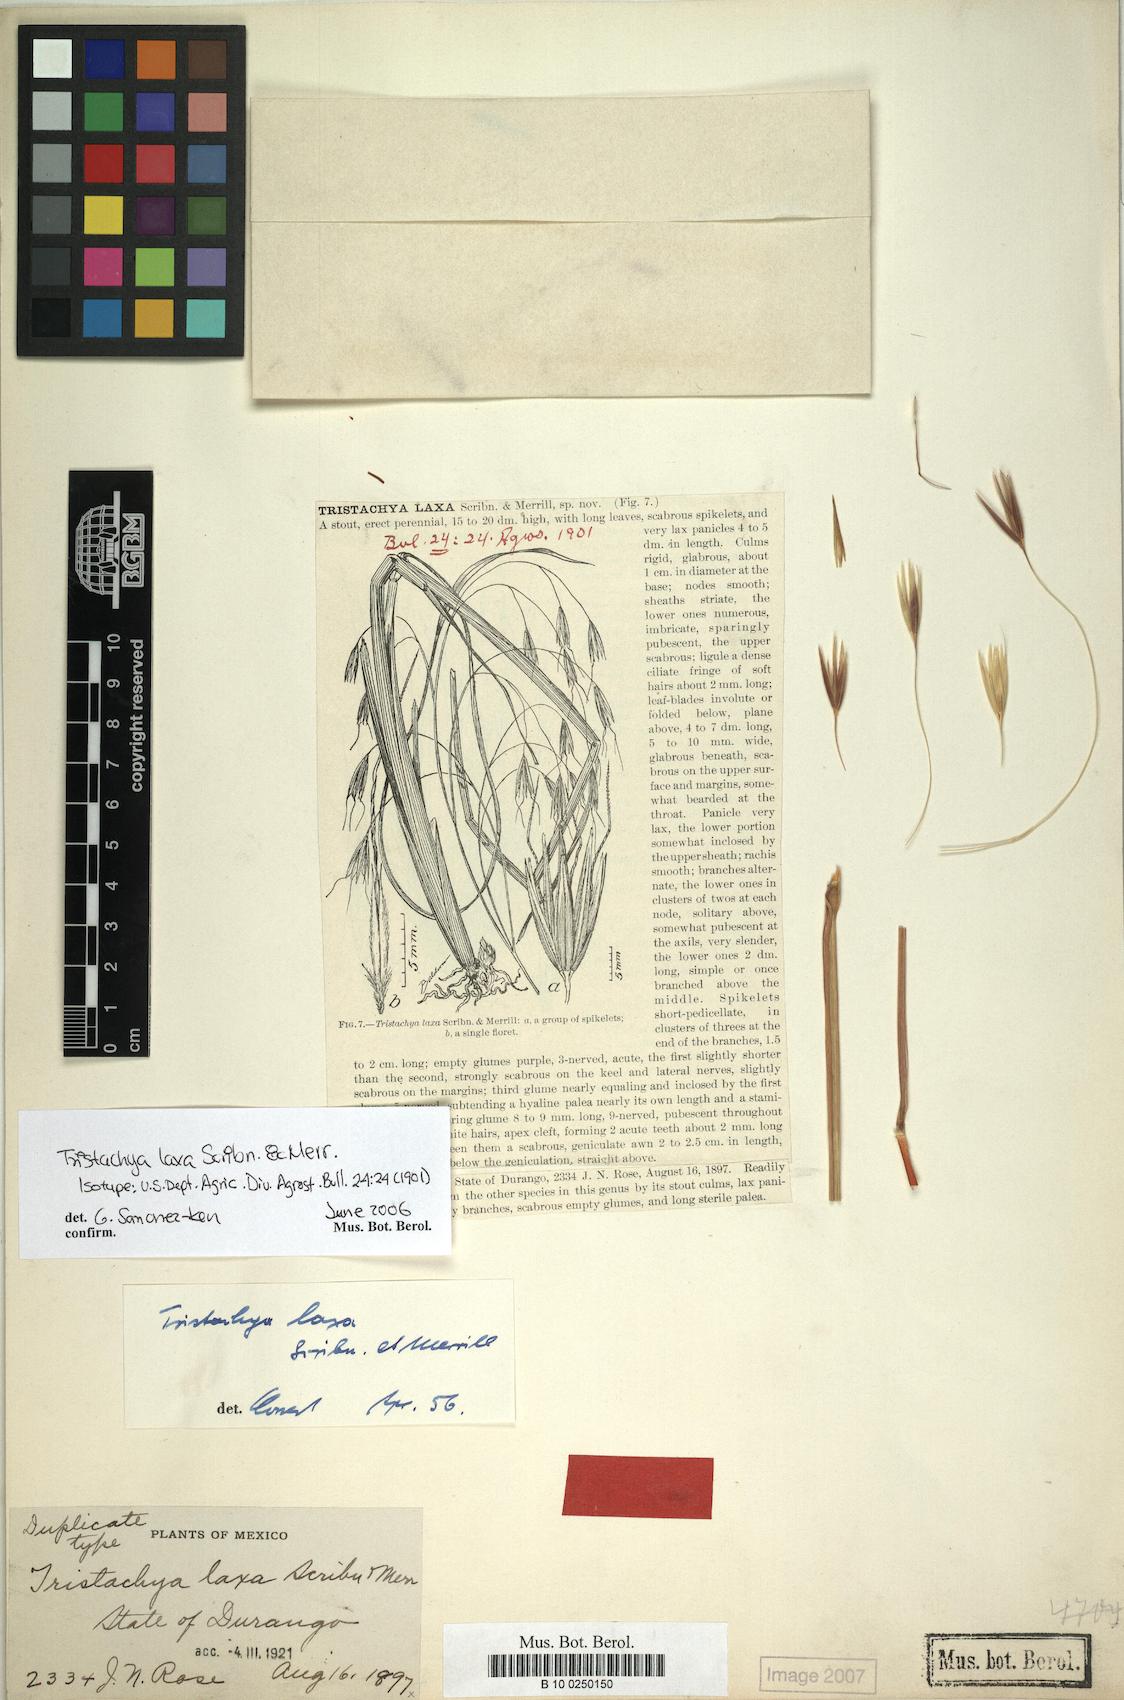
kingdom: Plantae
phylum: Tracheophyta
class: Liliopsida
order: Poales
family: Poaceae
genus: Tristachya
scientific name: Tristachya laxa
